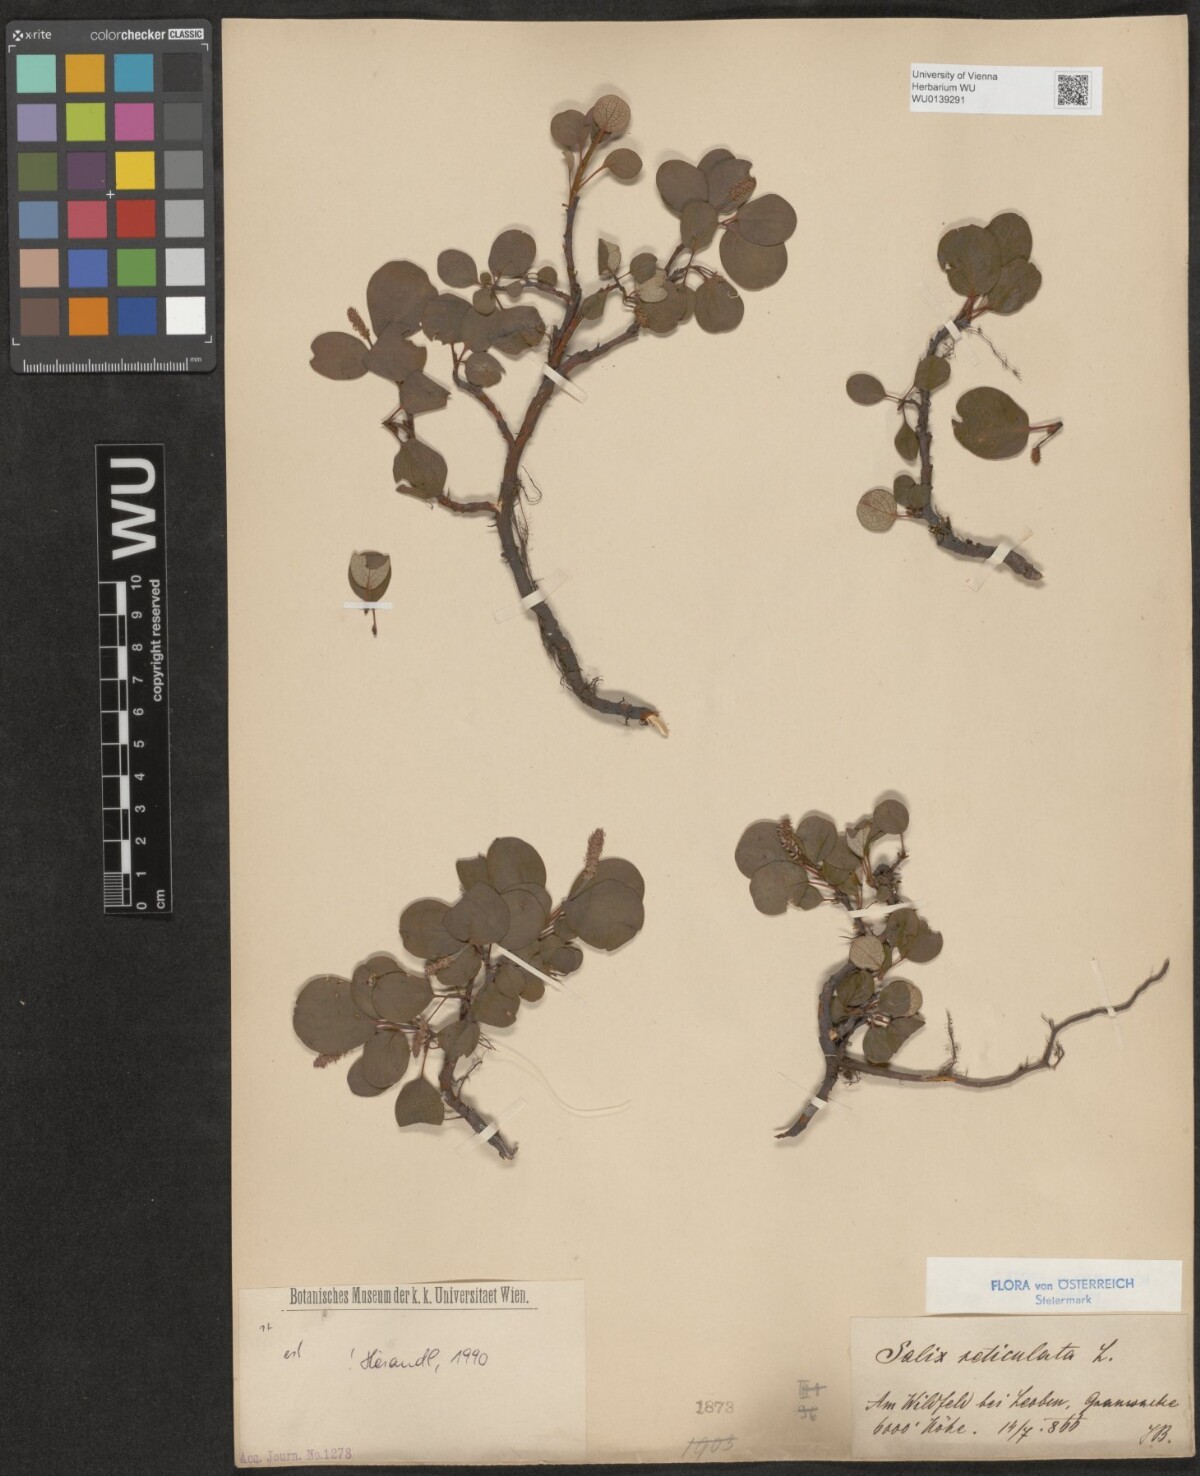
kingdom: Plantae
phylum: Tracheophyta
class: Magnoliopsida
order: Malpighiales
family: Salicaceae
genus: Salix
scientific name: Salix reticulata
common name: Net-leaved willow
